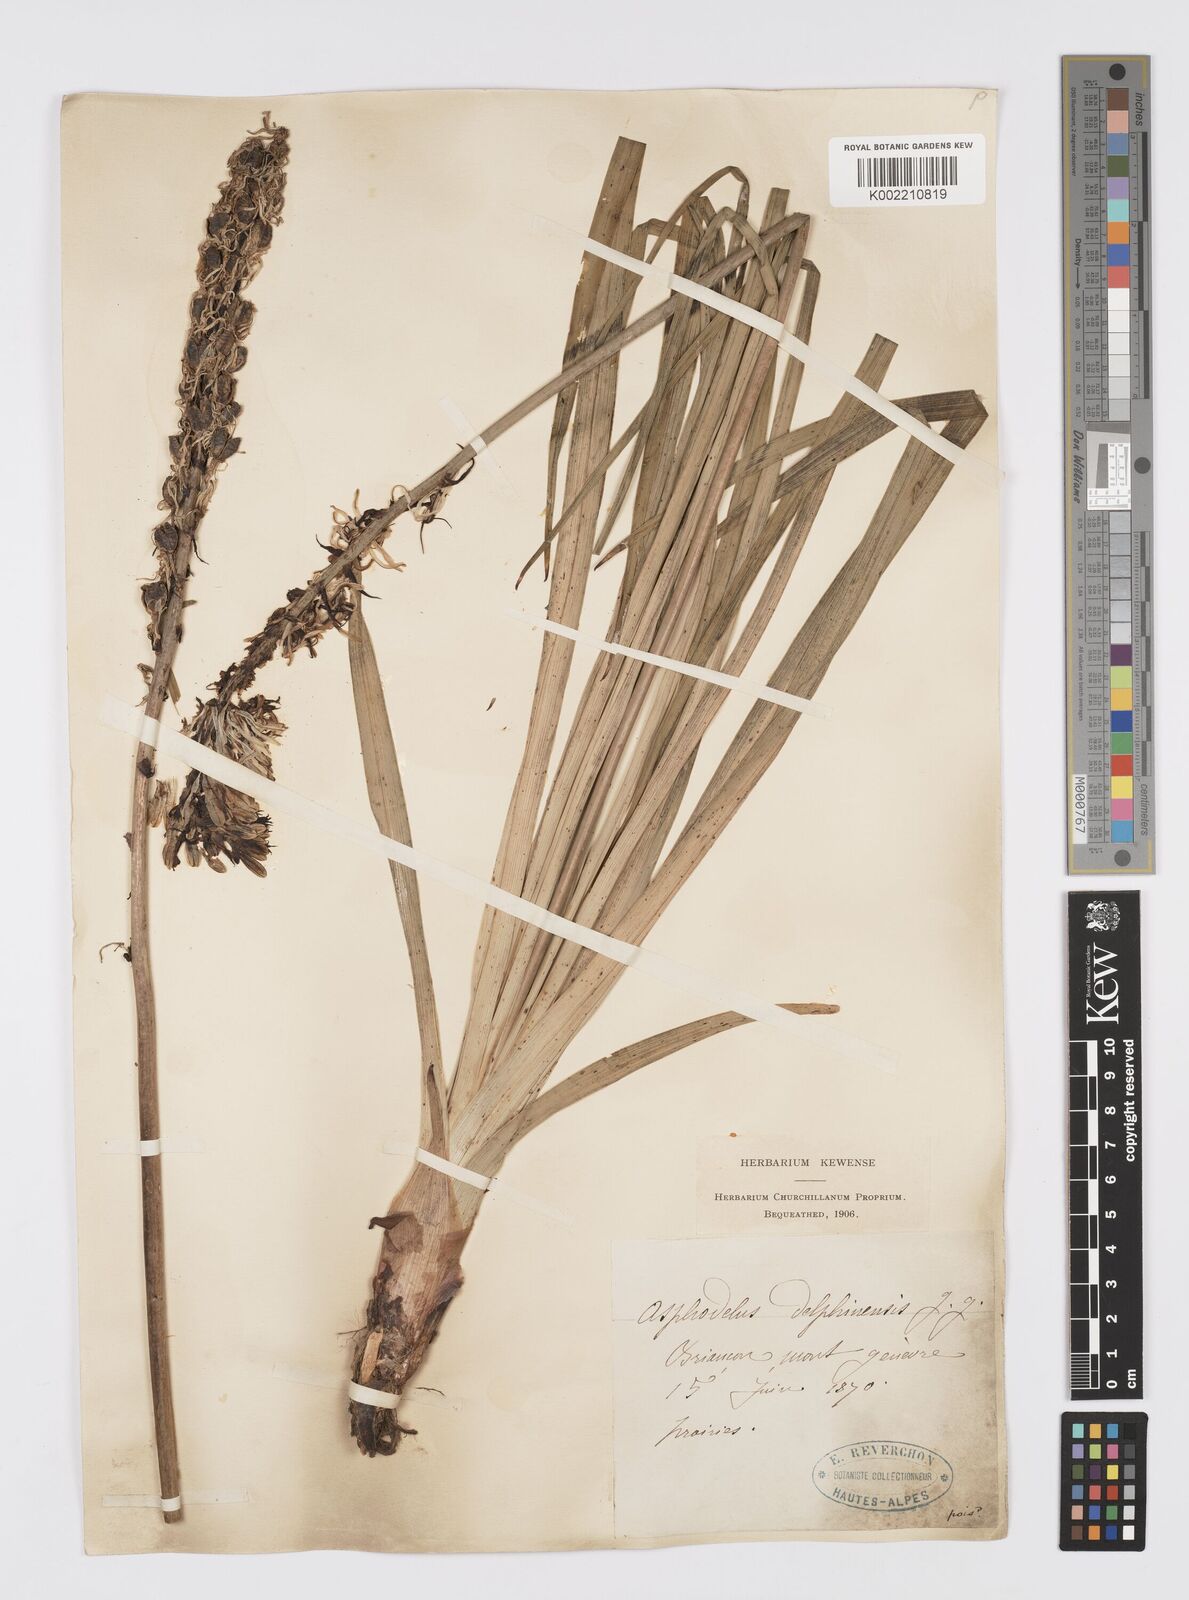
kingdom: Plantae
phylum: Tracheophyta
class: Liliopsida
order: Asparagales
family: Asphodelaceae
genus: Asphodelus
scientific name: Asphodelus albus
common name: White asphodel
